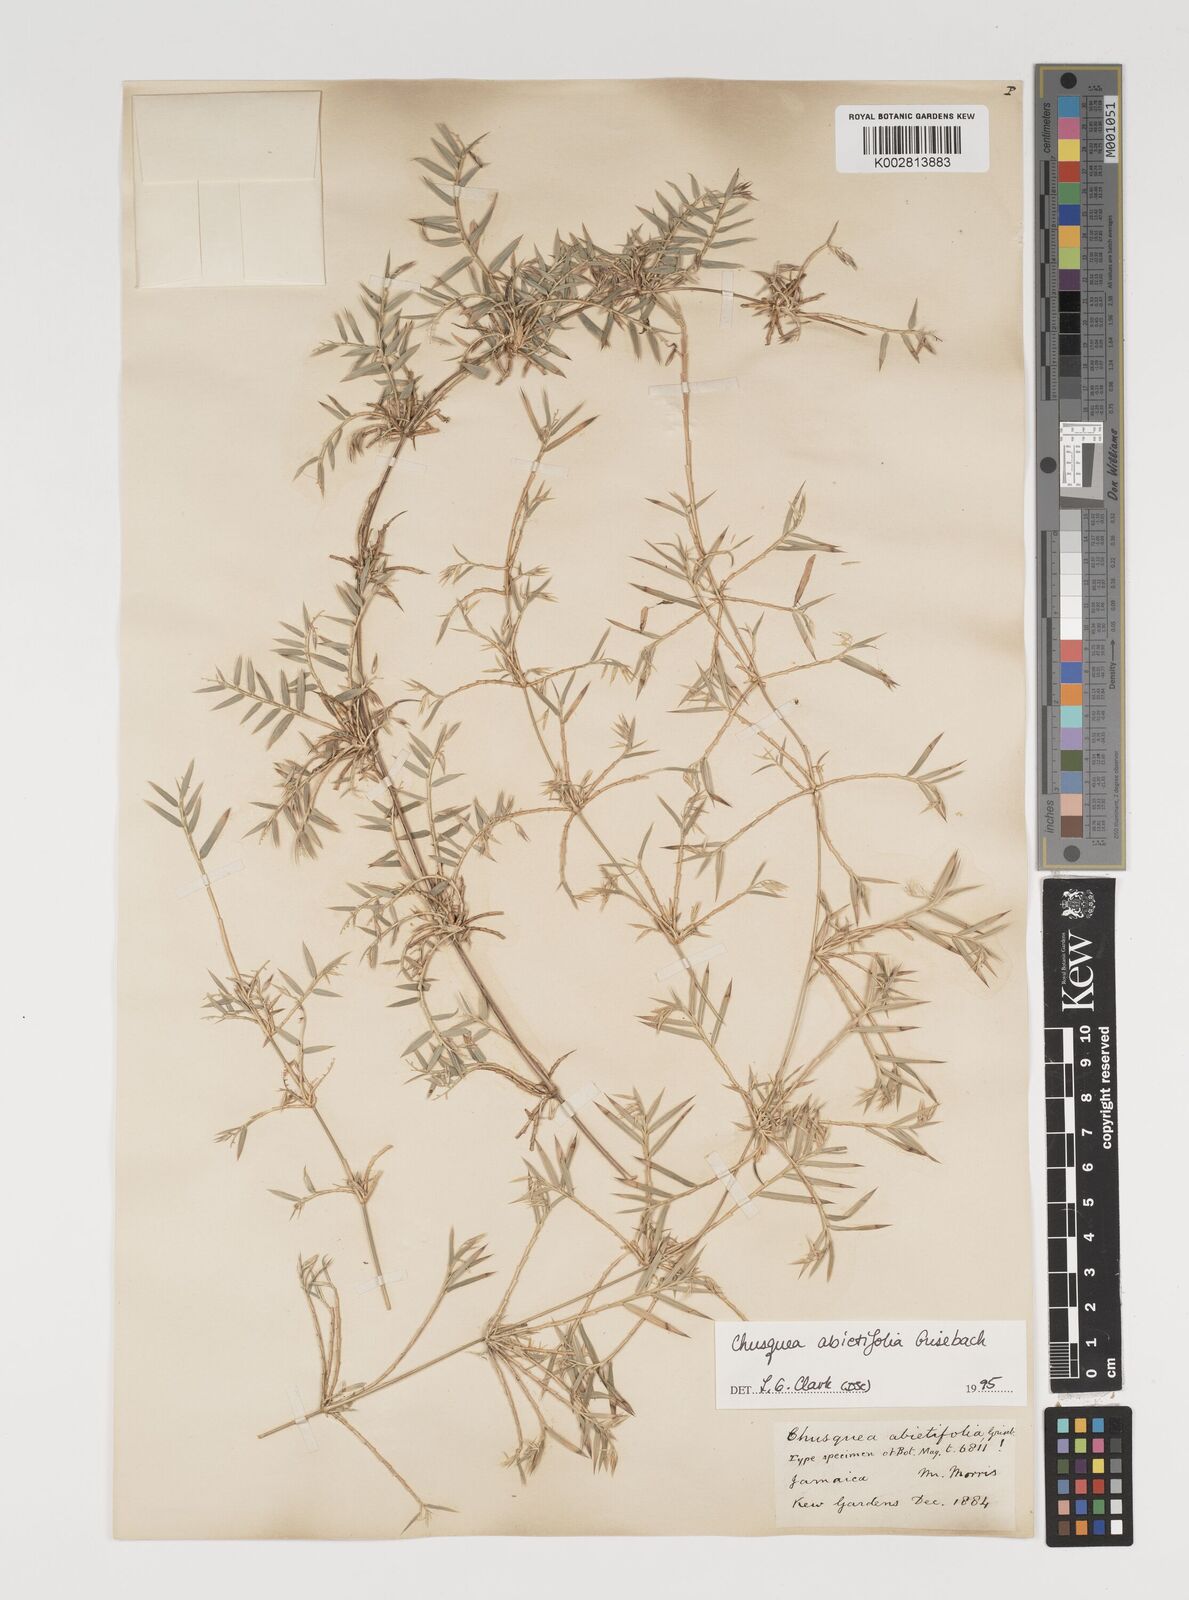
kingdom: Plantae
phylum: Tracheophyta
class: Liliopsida
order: Poales
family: Poaceae
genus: Chusquea
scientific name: Chusquea abietifolia
